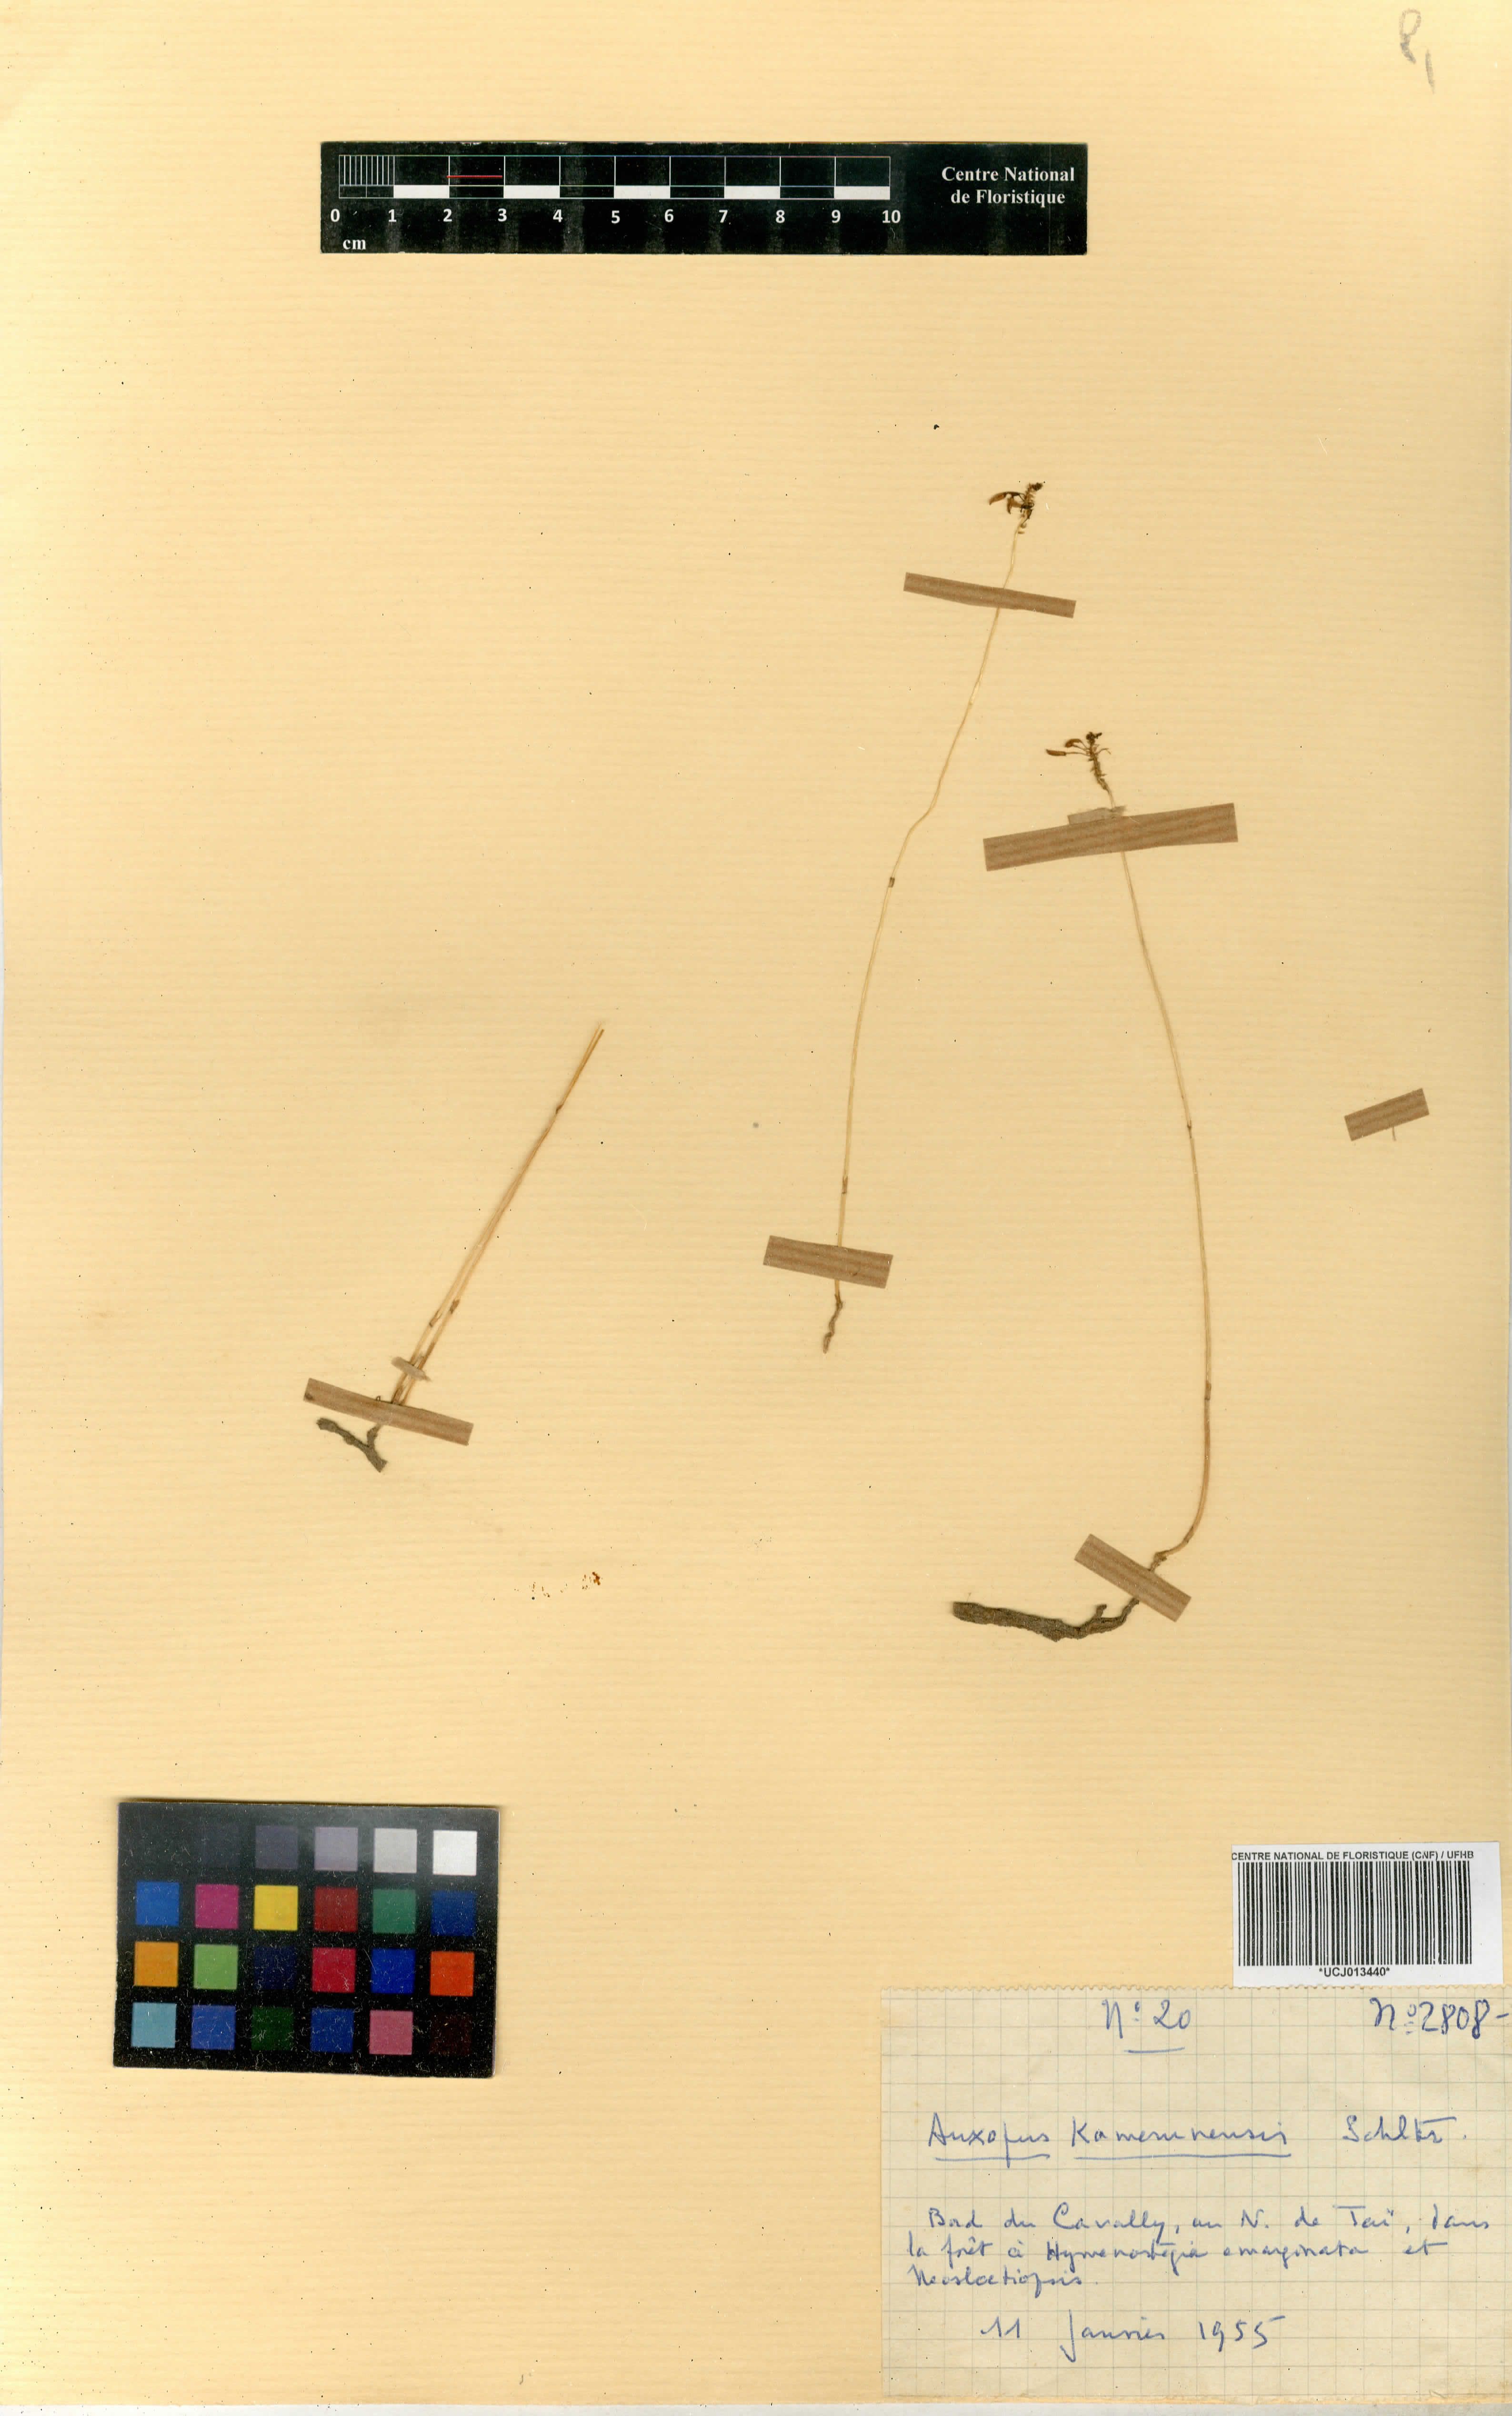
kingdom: Plantae
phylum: Tracheophyta
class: Liliopsida
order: Asparagales
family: Orchidaceae
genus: Auxopus
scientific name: Auxopus kamerunensis
